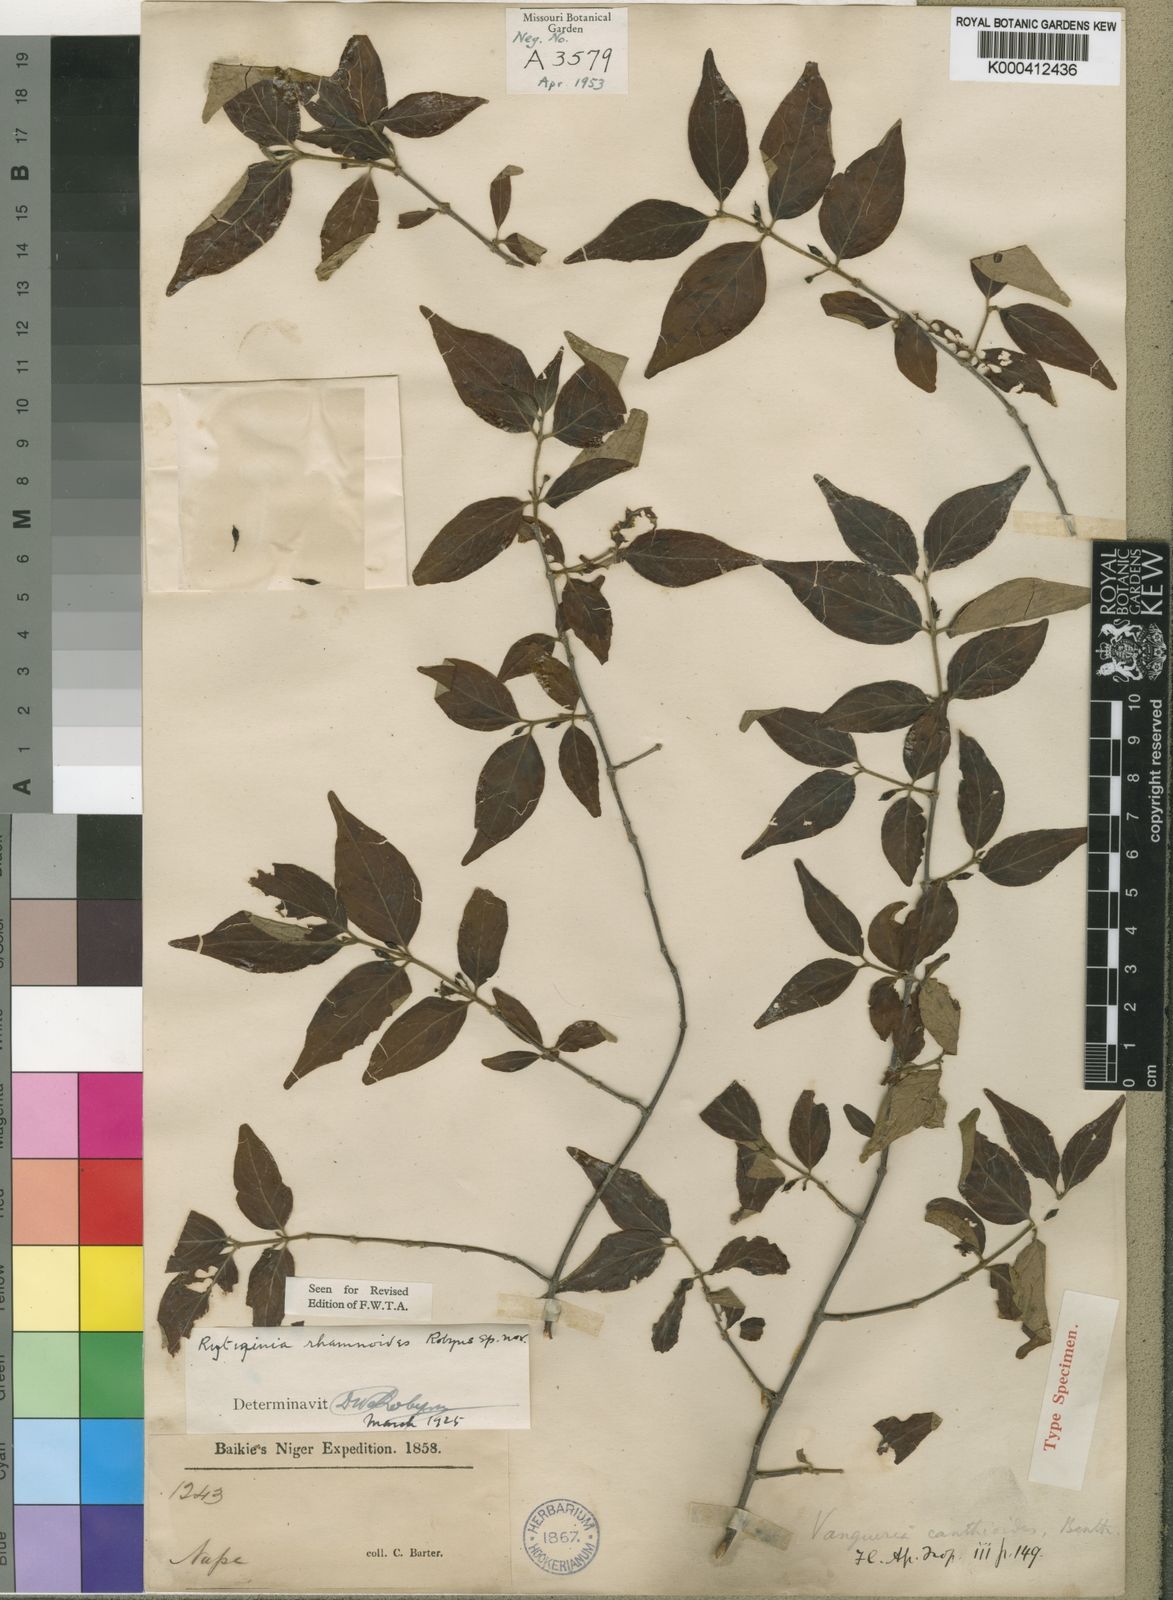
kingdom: Plantae
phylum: Tracheophyta
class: Magnoliopsida
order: Gentianales
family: Rubiaceae
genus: Rytigynia
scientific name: Rytigynia rhamnoides
